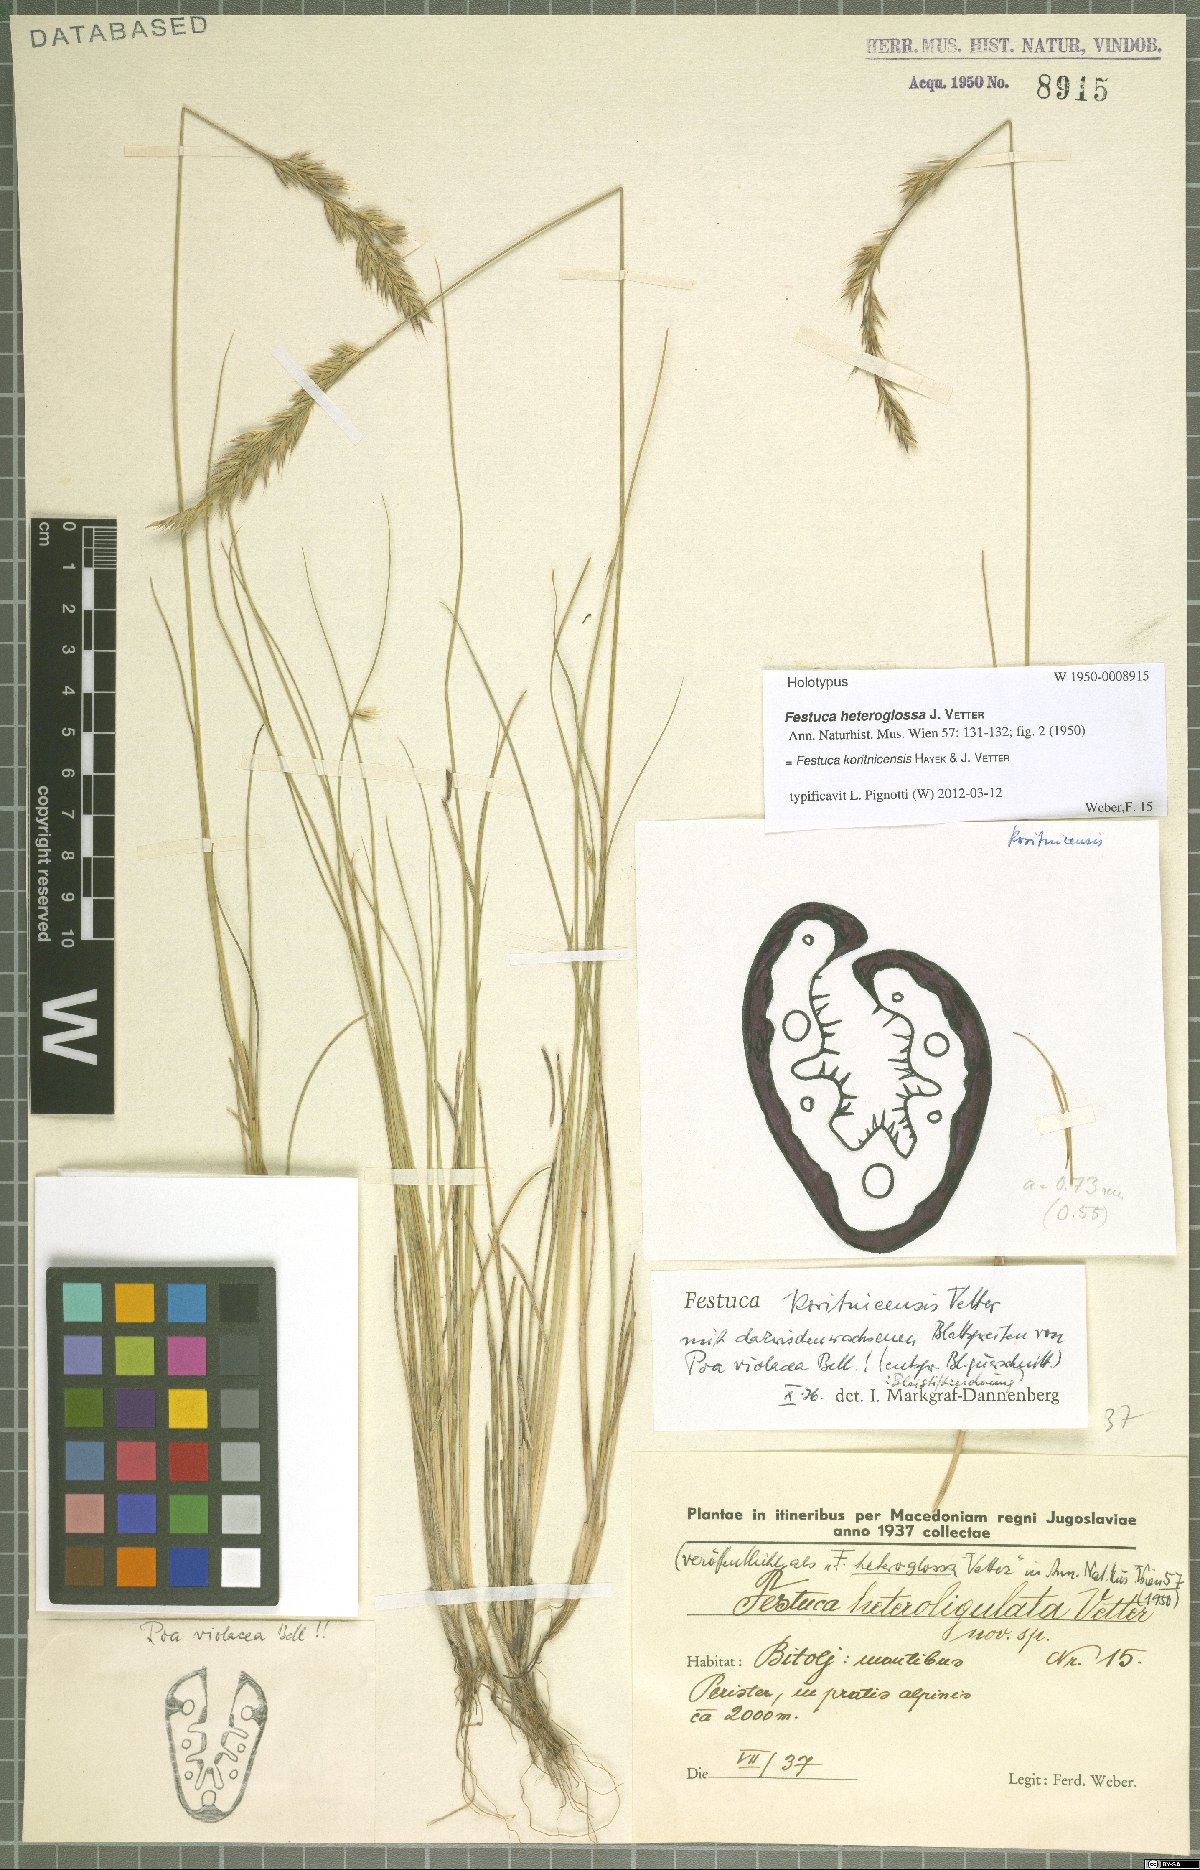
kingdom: Plantae
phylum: Tracheophyta
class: Liliopsida
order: Poales
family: Poaceae
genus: Festuca
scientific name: Festuca koritnicensis
